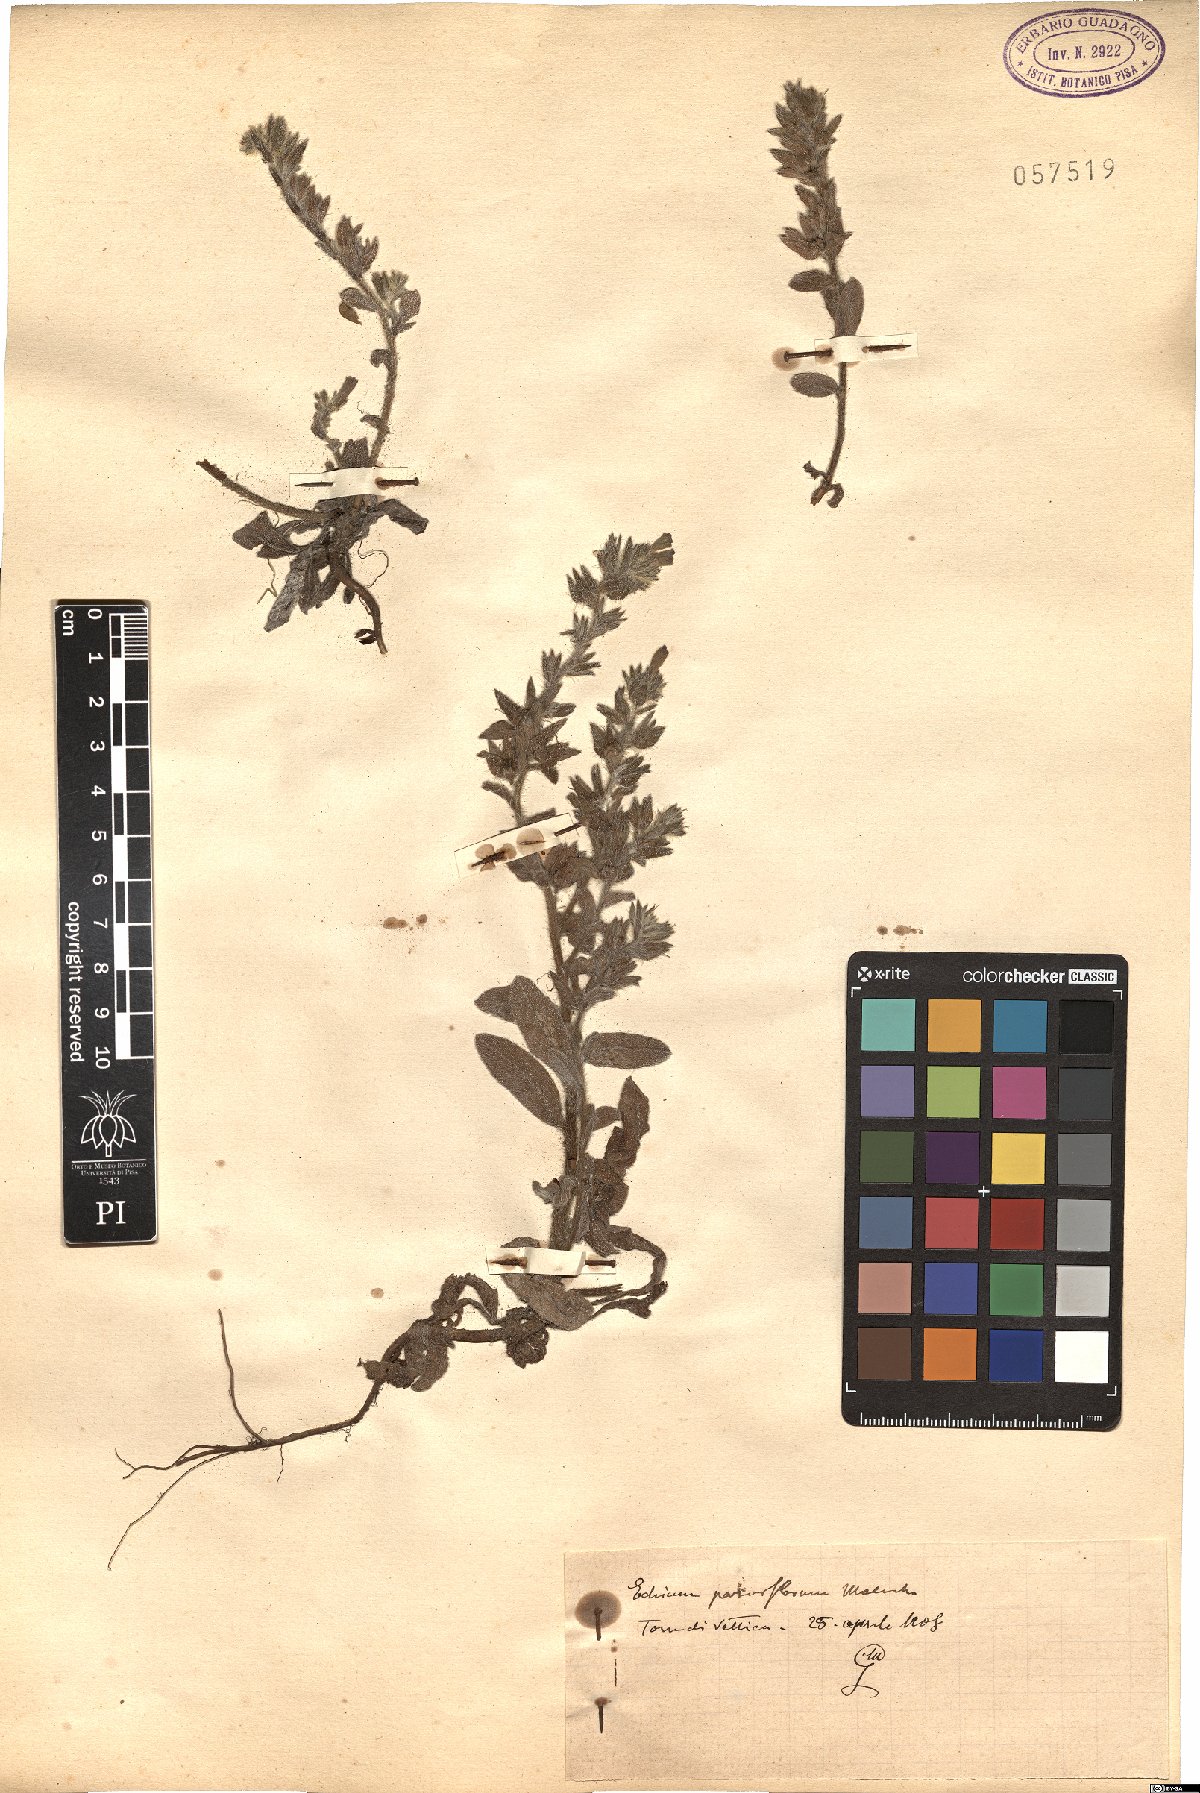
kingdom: Plantae
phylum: Tracheophyta
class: Magnoliopsida
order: Boraginales
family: Boraginaceae
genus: Echium
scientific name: Echium parviflorum
